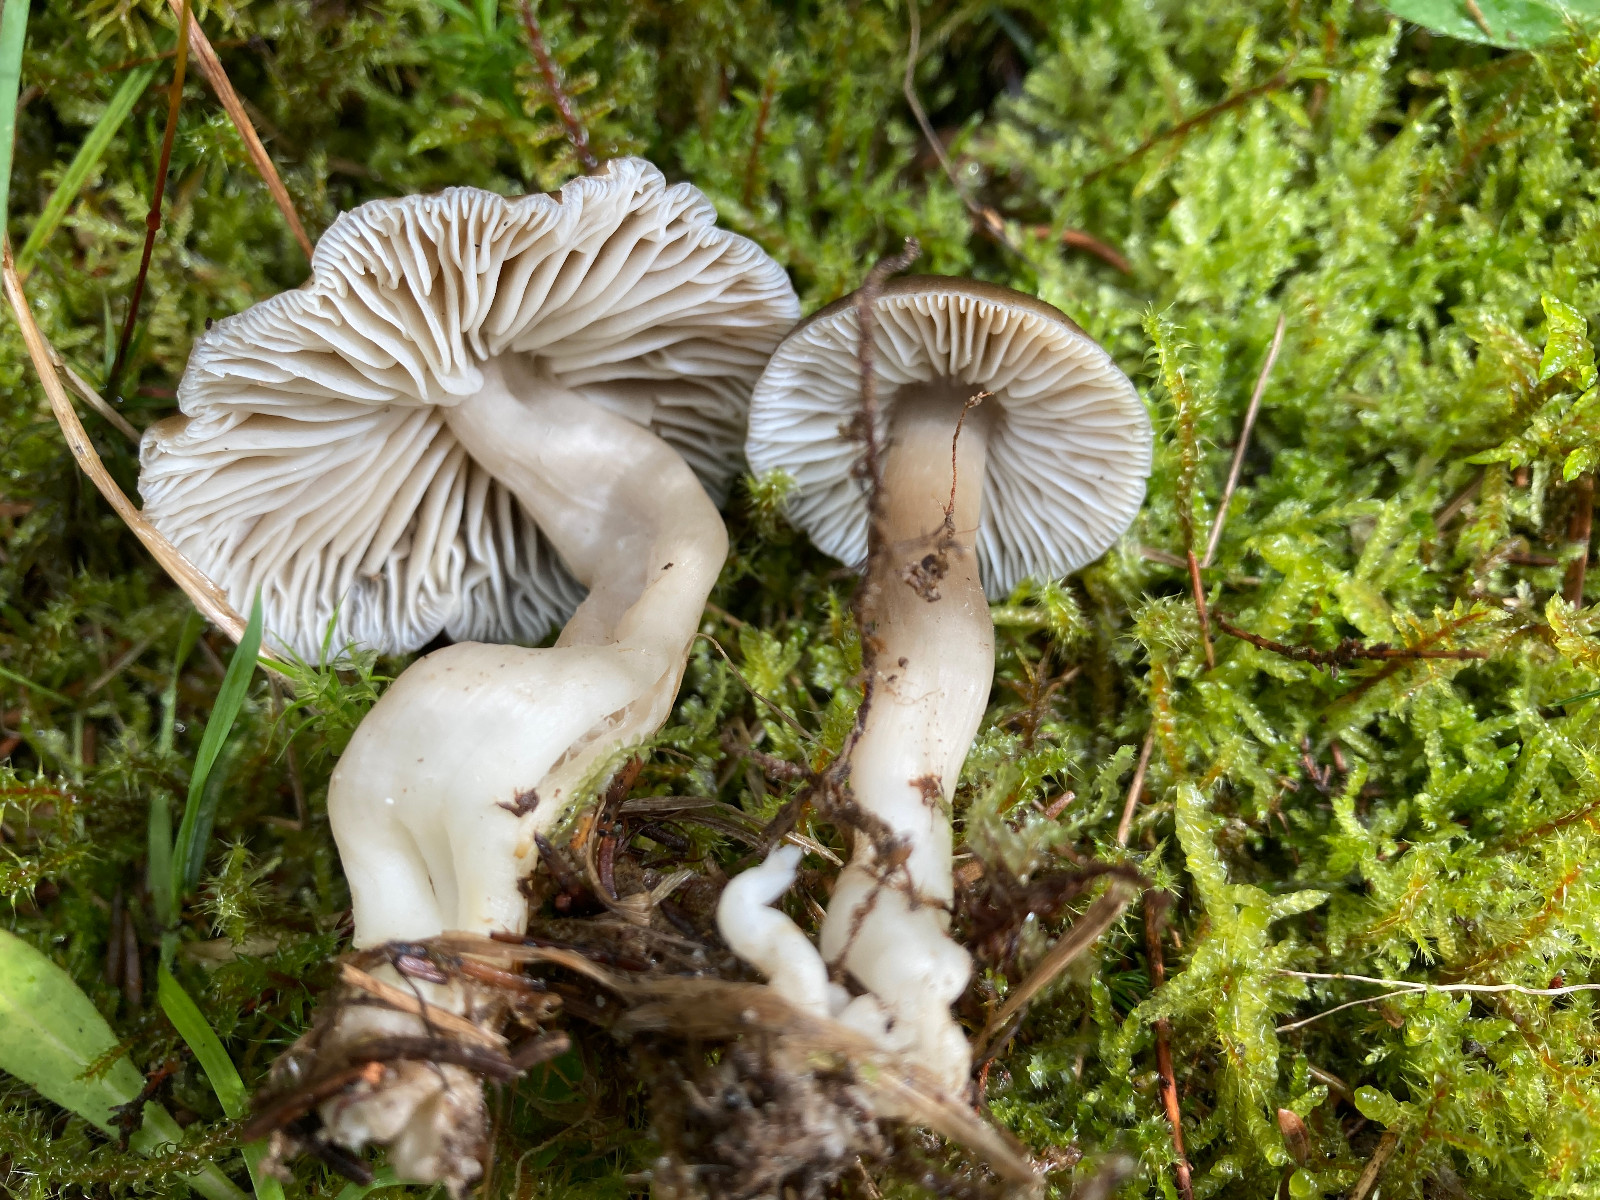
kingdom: Fungi
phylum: Basidiomycota
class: Agaricomycetes
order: Agaricales
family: Hygrophoraceae
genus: Neohygrocybe
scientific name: Neohygrocybe nitrata
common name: stinkende vokshat
